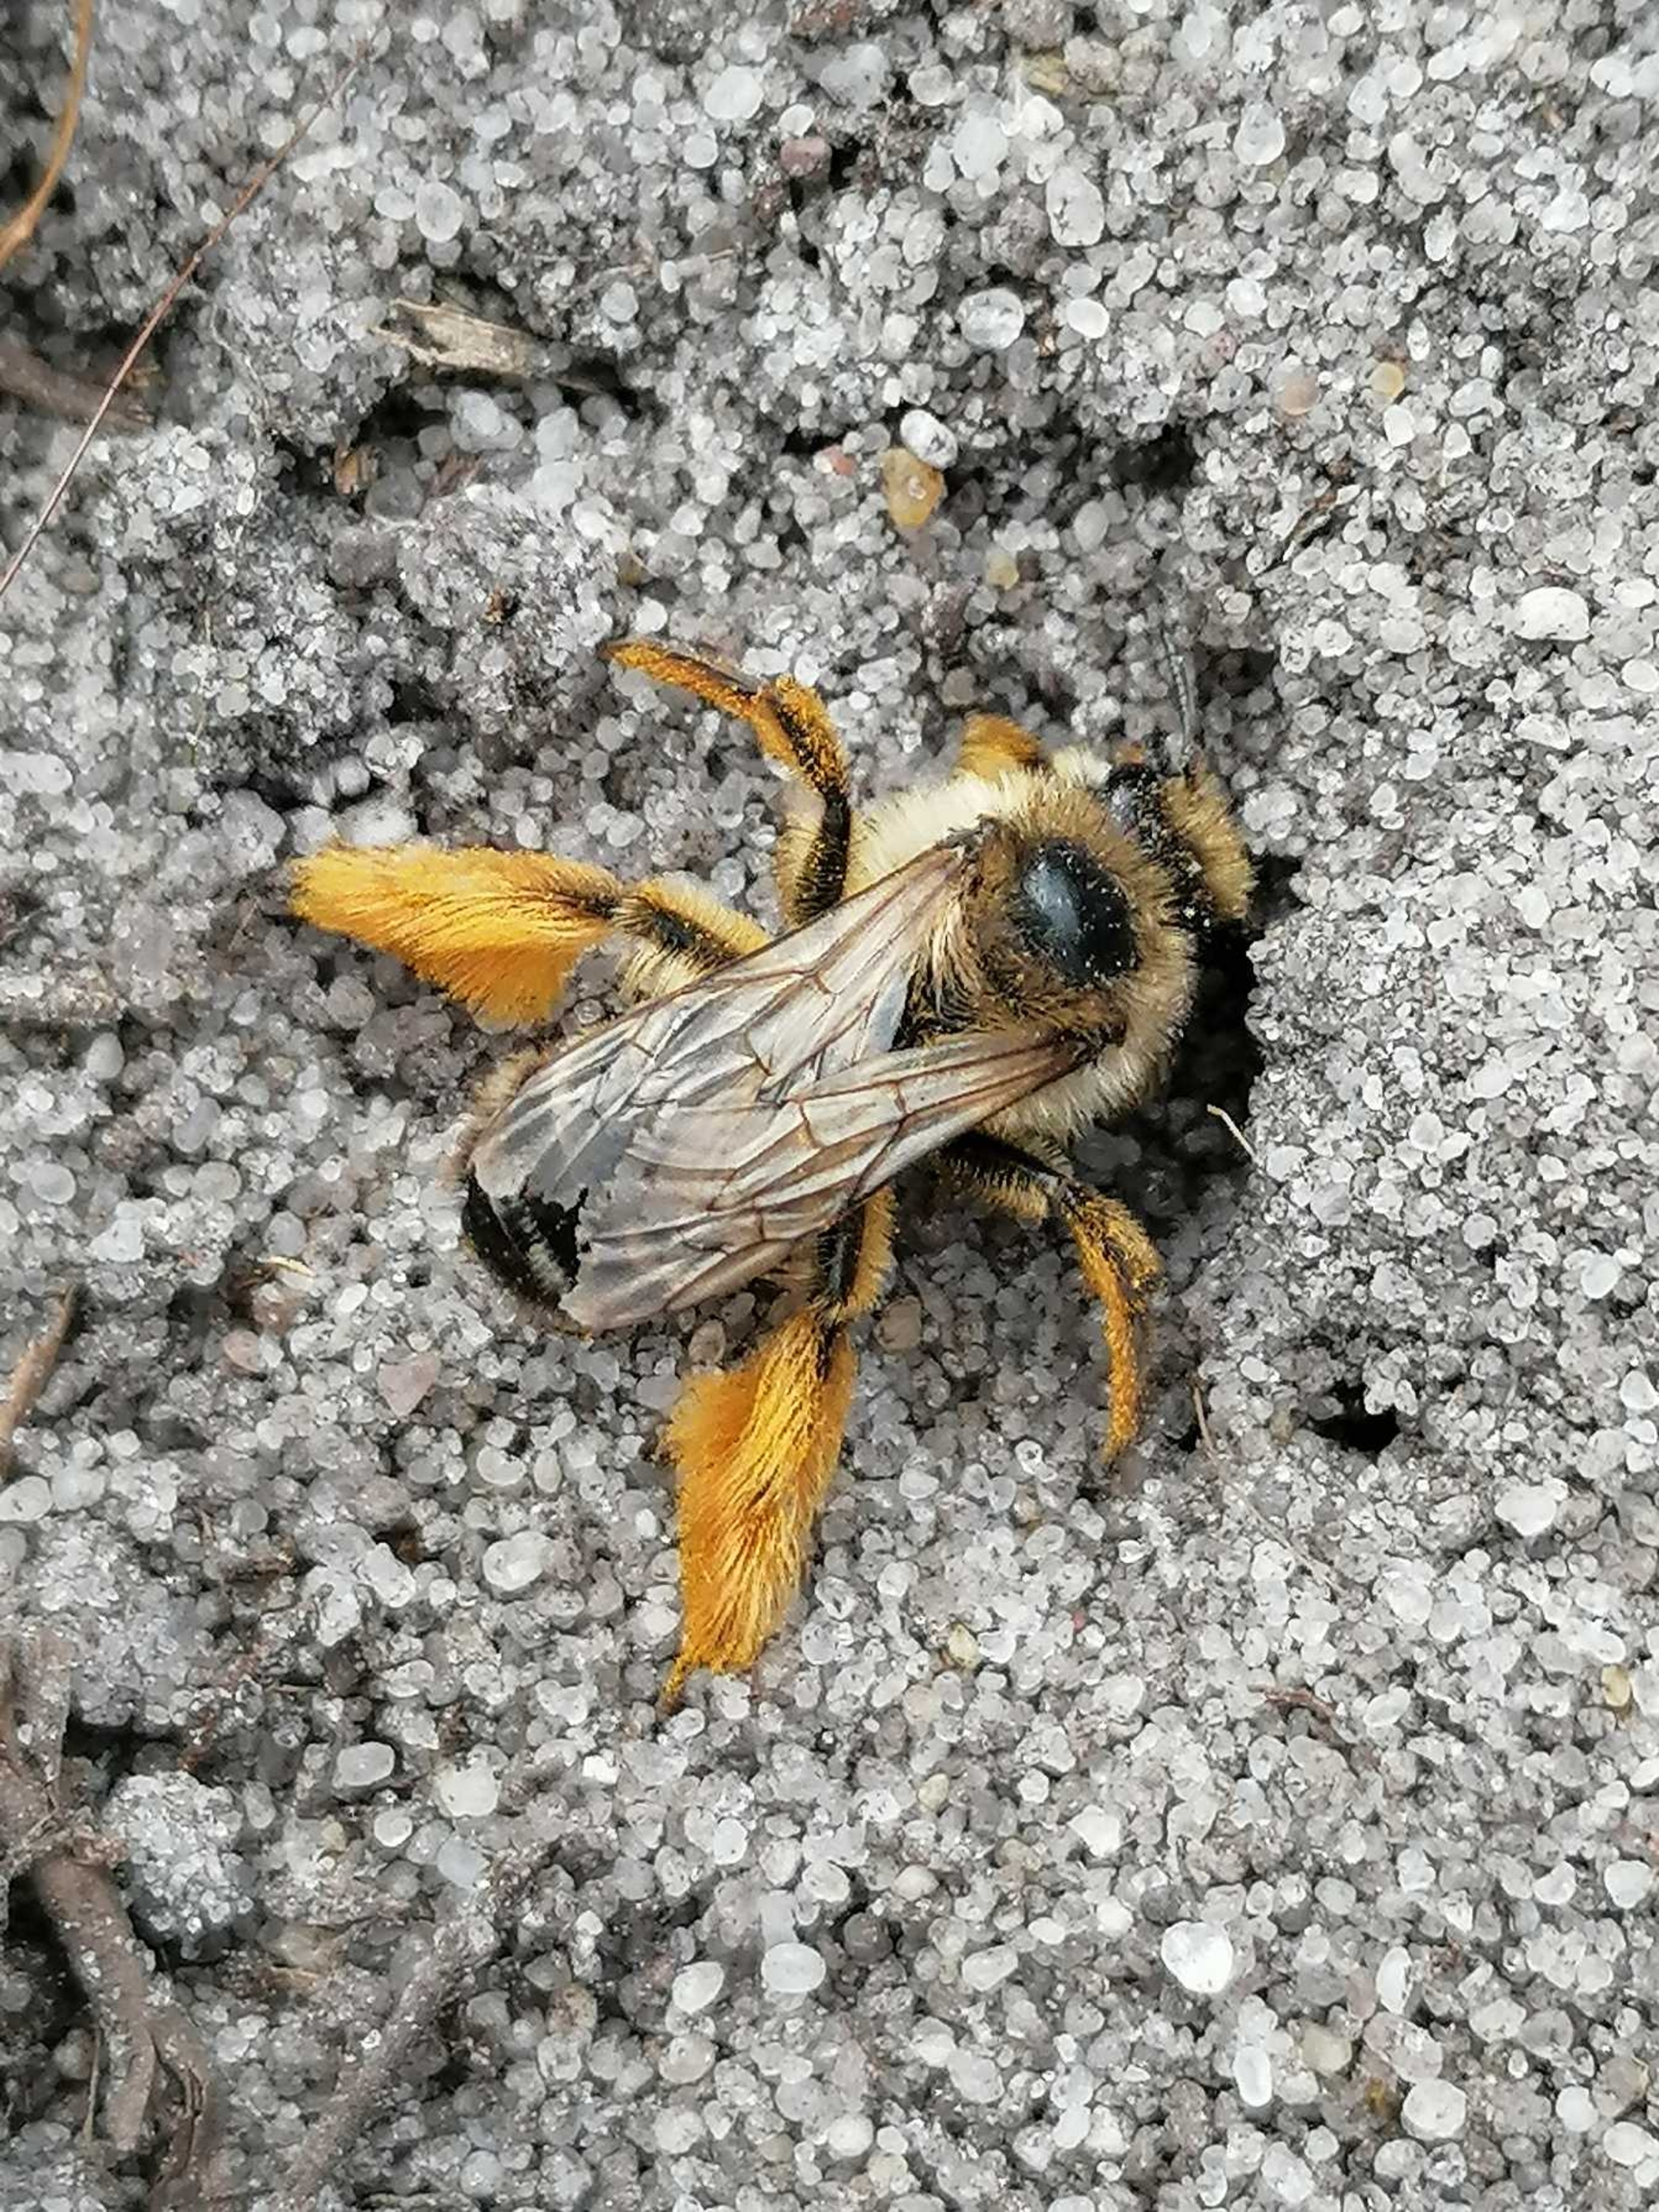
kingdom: Animalia
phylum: Arthropoda
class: Insecta
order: Hymenoptera
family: Melittidae
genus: Dasypoda
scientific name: Dasypoda hirtipes
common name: Pragtbuksebi
